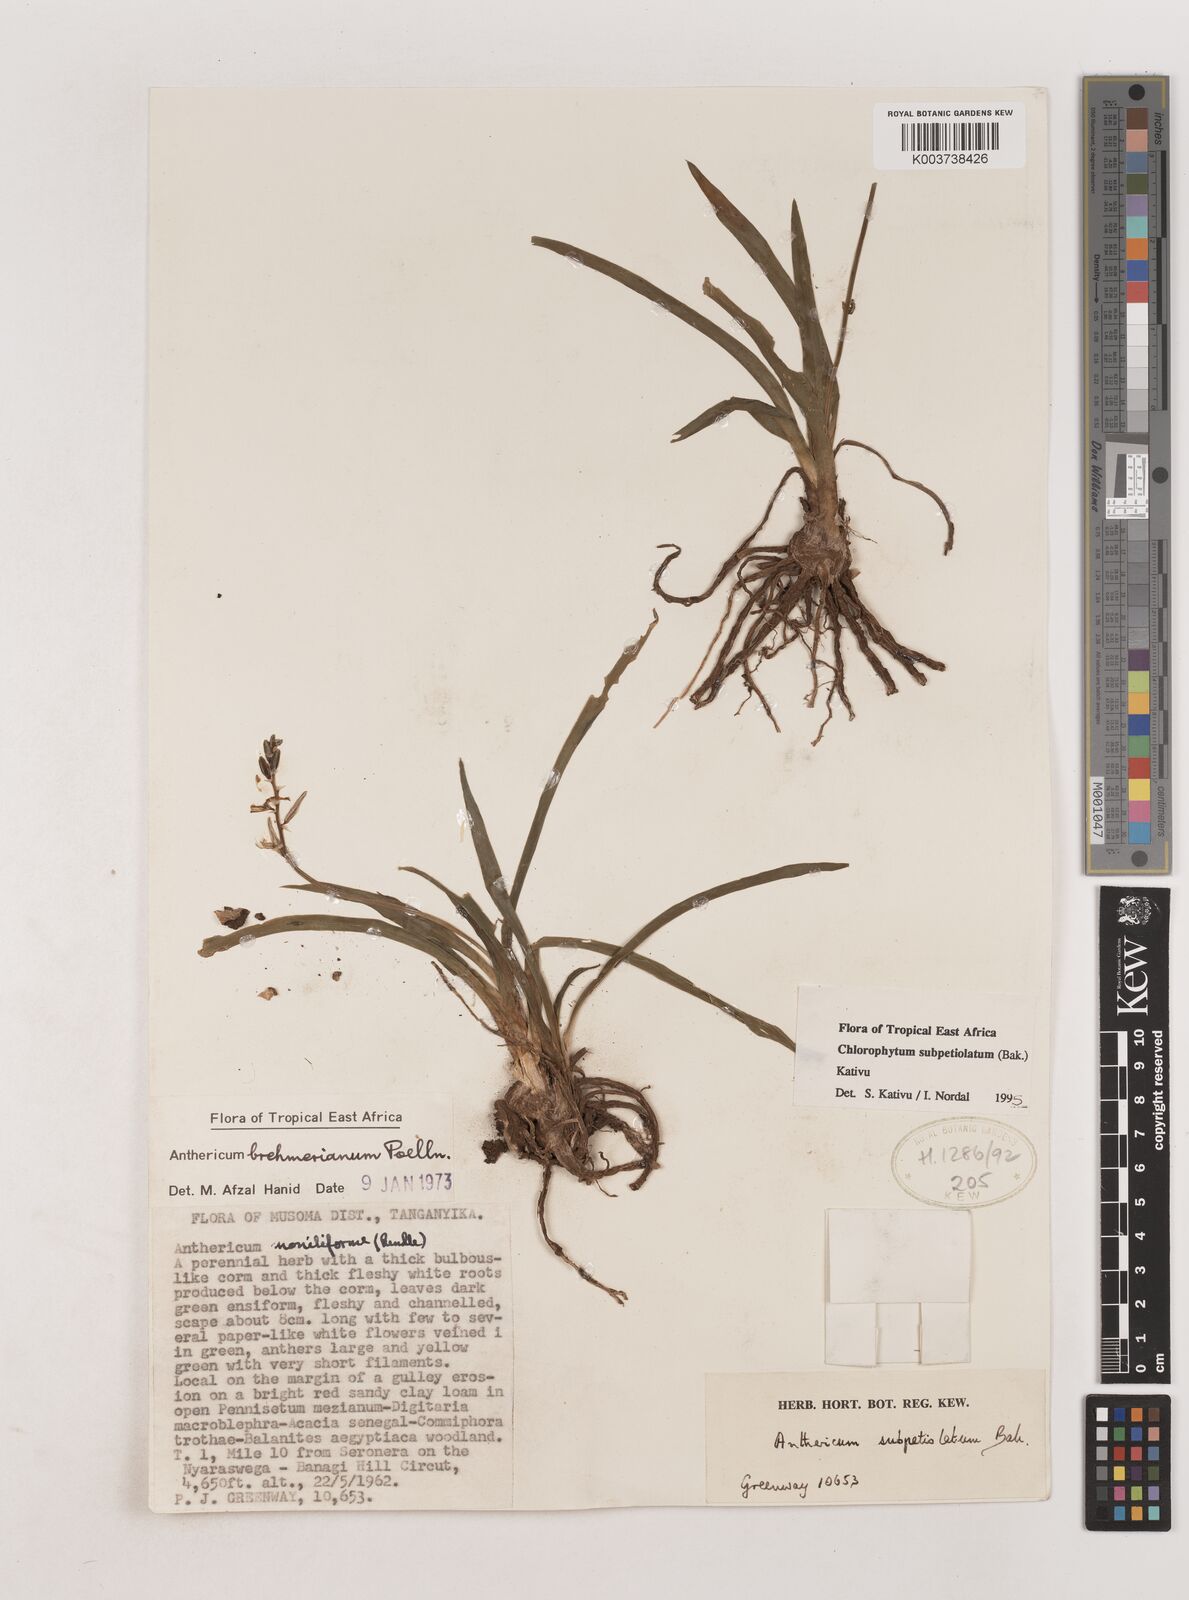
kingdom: Plantae
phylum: Tracheophyta
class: Liliopsida
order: Asparagales
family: Asparagaceae
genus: Chlorophytum
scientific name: Chlorophytum subpetiolatum
